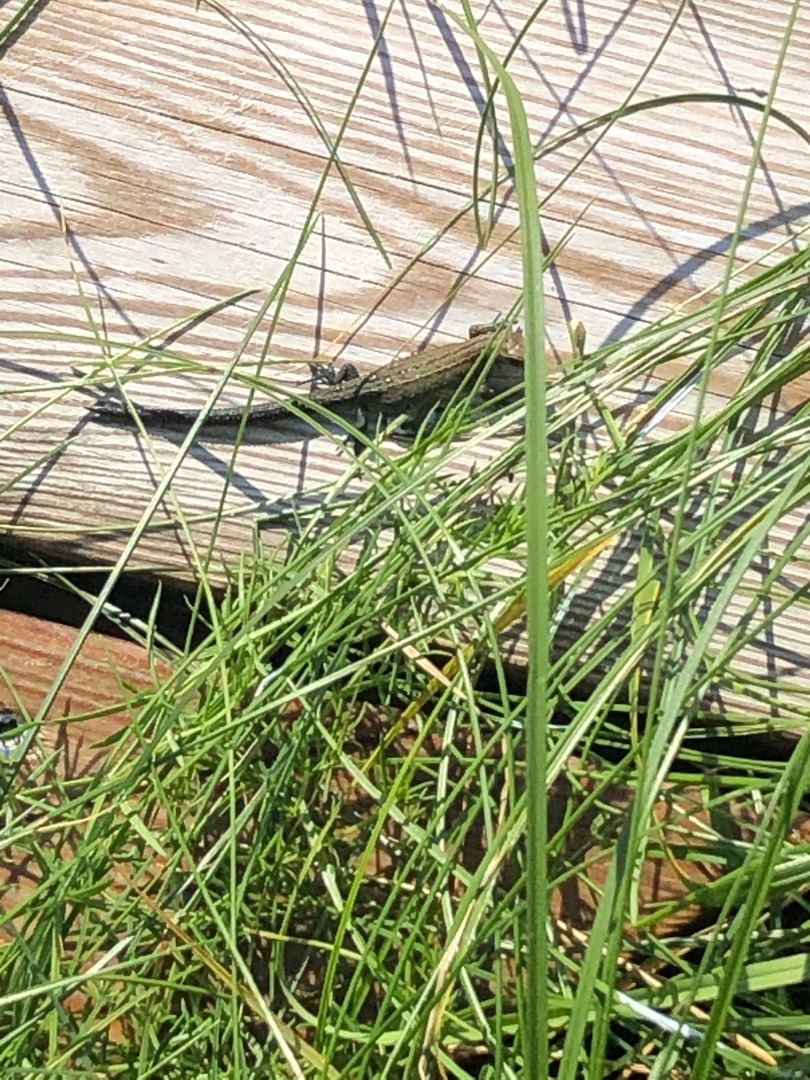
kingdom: Animalia
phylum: Chordata
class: Squamata
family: Lacertidae
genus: Zootoca
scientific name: Zootoca vivipara
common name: Skovfirben
